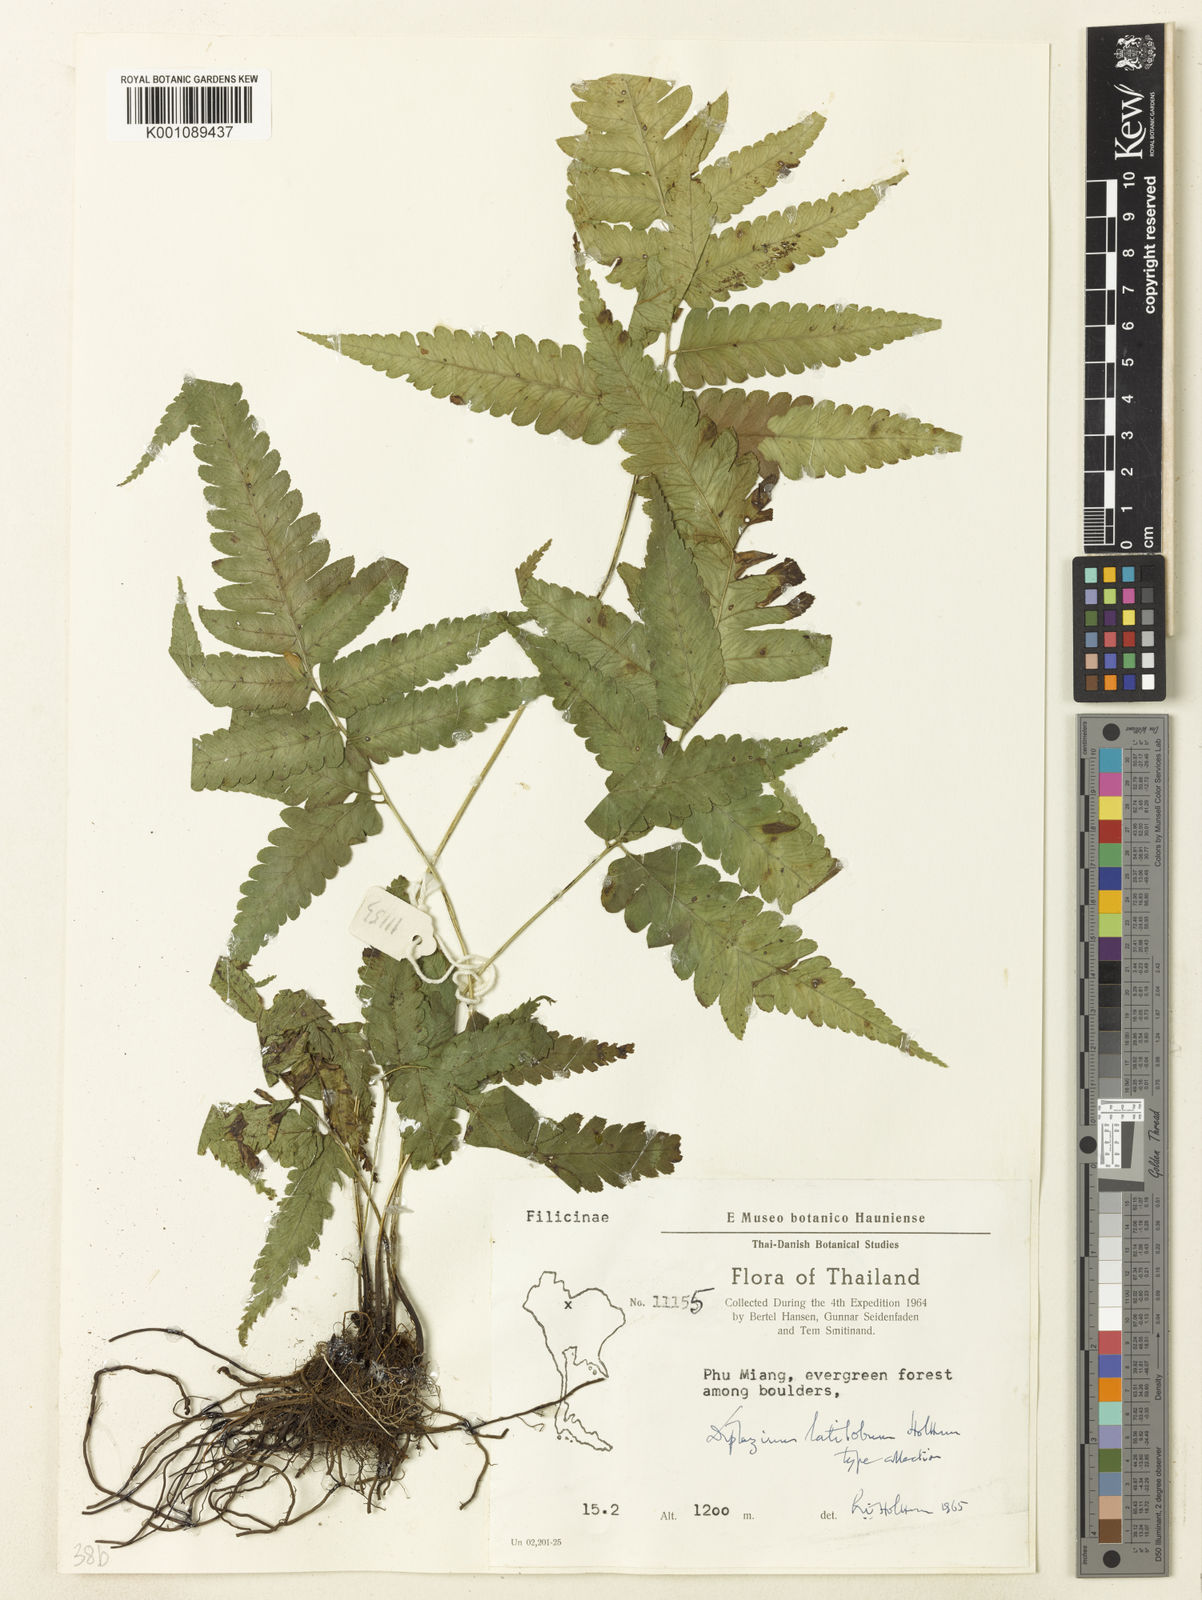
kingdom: Plantae
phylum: Tracheophyta
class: Polypodiopsida
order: Polypodiales
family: Athyriaceae
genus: Diplazium
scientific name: Diplazium siamense
